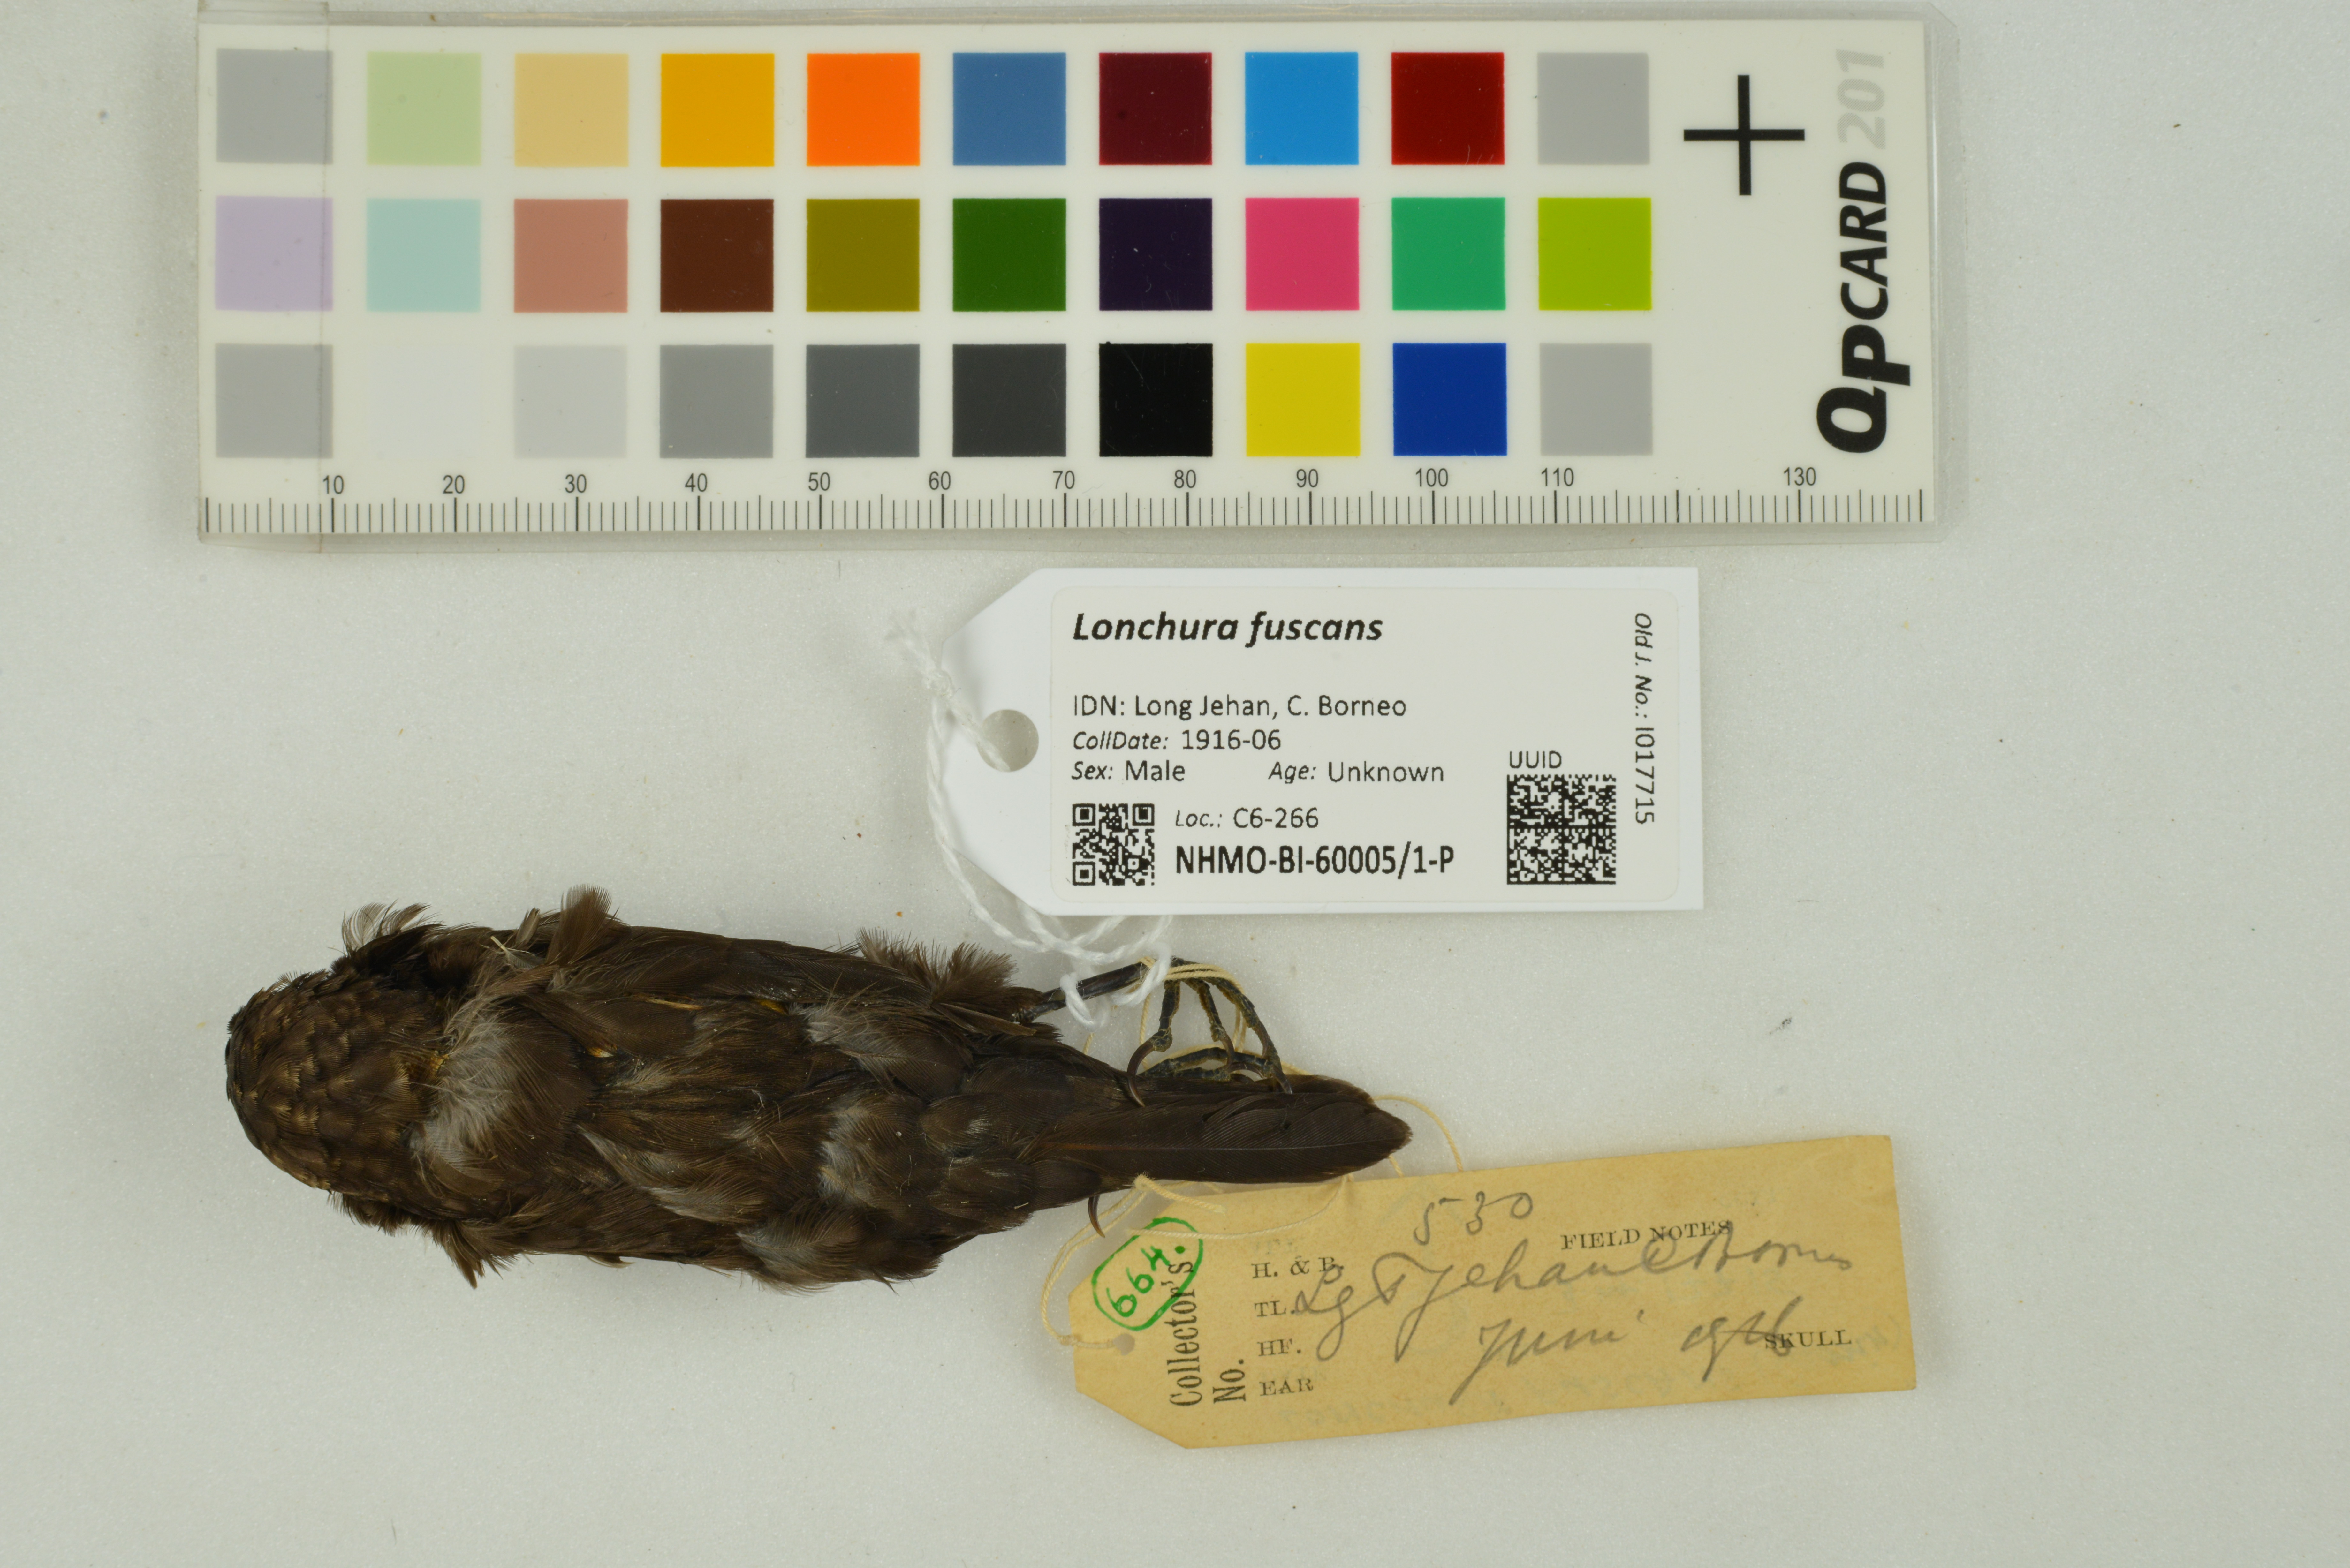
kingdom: Animalia
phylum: Chordata
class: Aves
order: Passeriformes
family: Estrildidae
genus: Lonchura
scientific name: Lonchura fuscans
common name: Dusky munia
